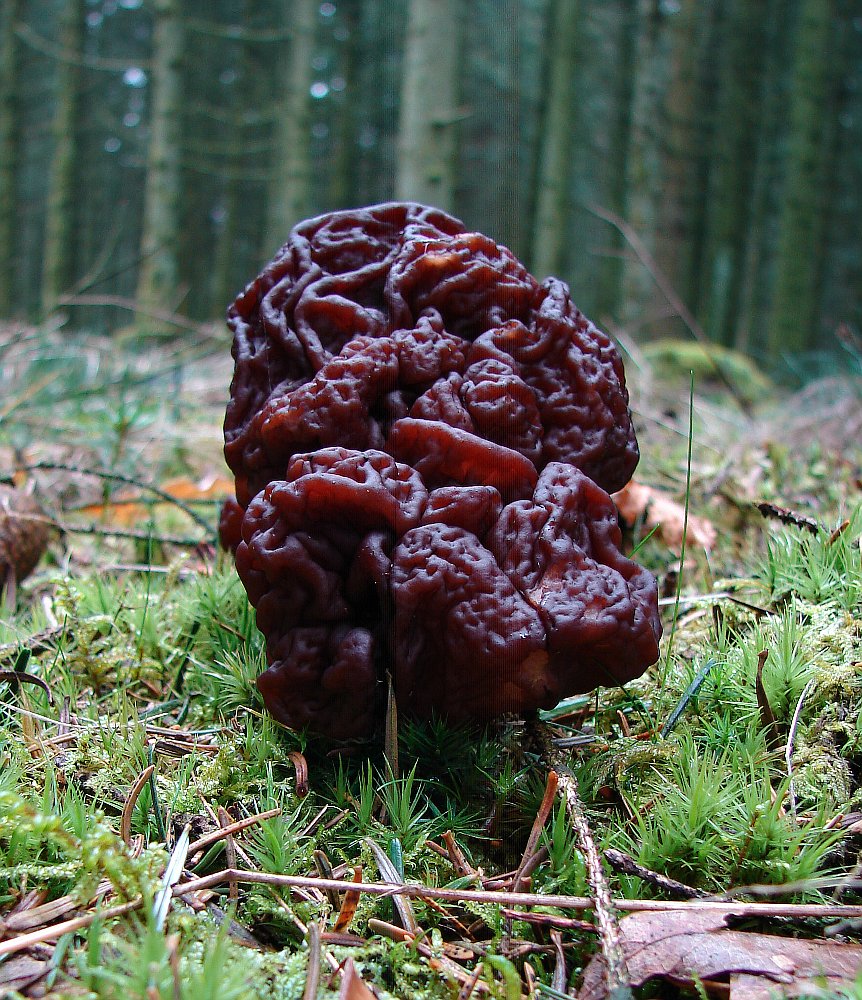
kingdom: Fungi
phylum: Ascomycota
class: Pezizomycetes
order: Pezizales
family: Discinaceae
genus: Gyromitra
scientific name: Gyromitra esculenta
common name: ægte stenmorkel
